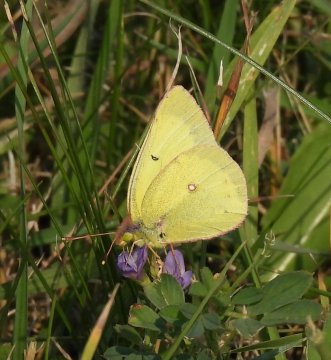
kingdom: Animalia
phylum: Arthropoda
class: Insecta
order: Lepidoptera
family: Pieridae
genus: Colias
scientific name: Colias philodice
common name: Clouded Sulphur
